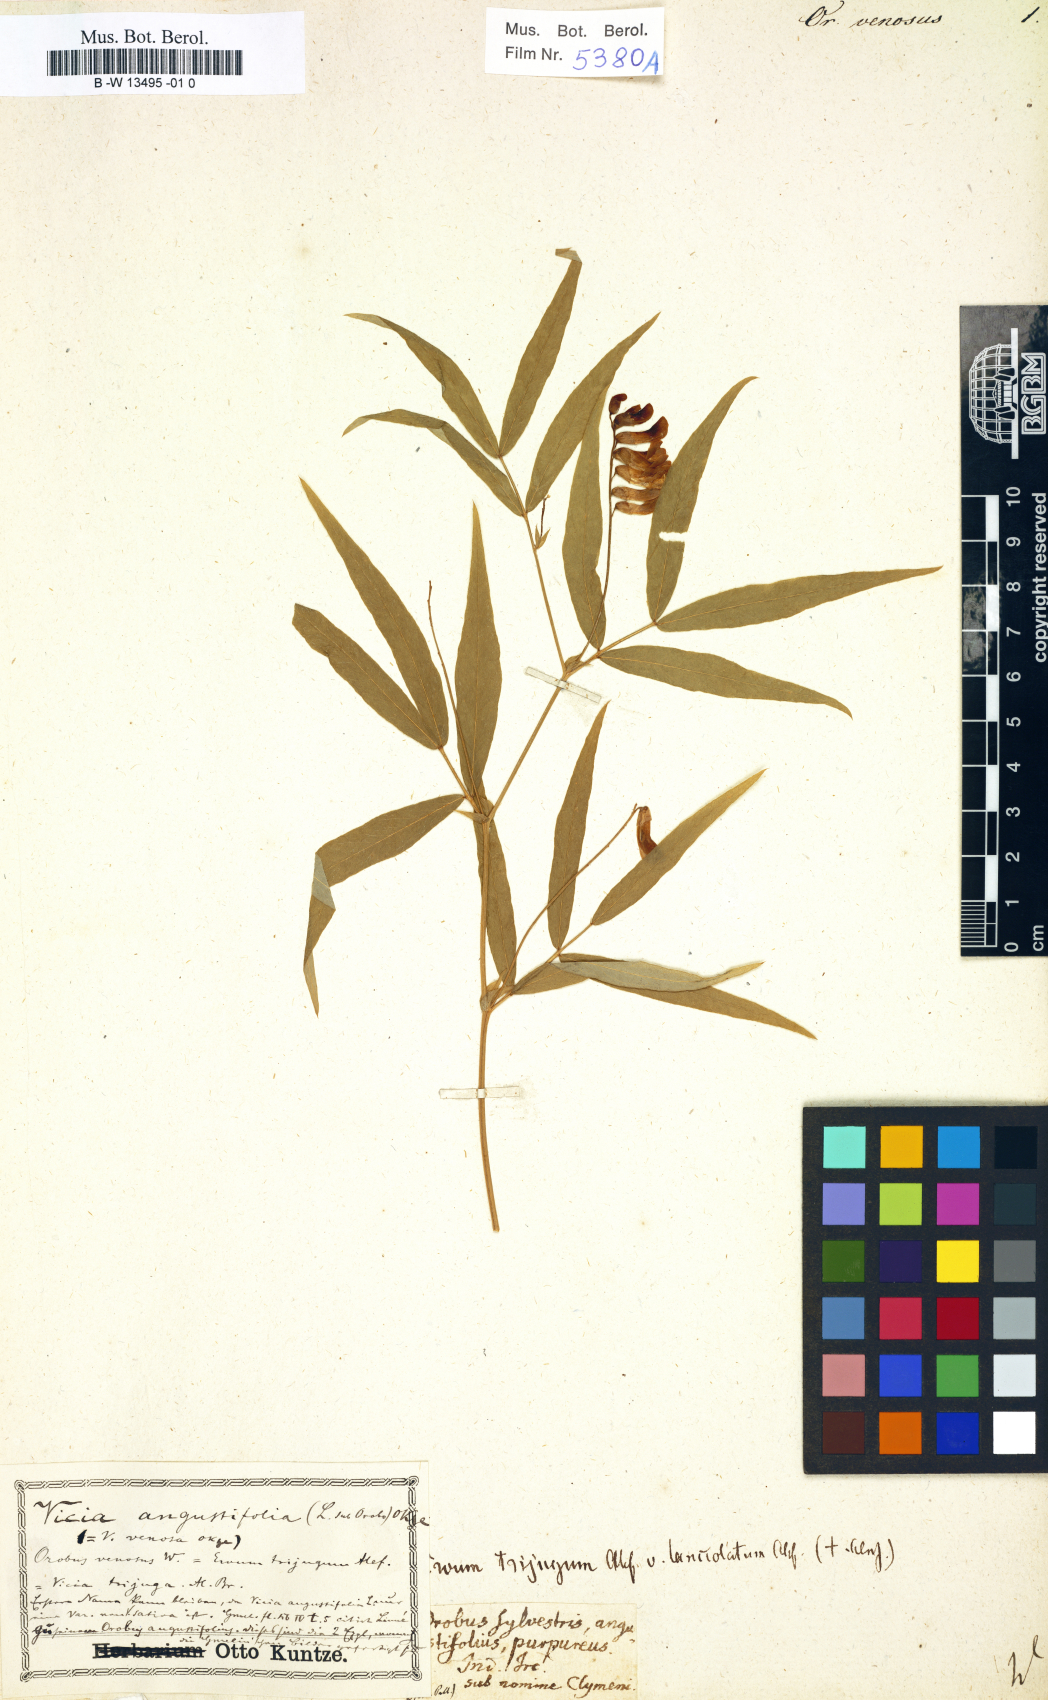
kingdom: Plantae
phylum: Tracheophyta
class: Magnoliopsida
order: Fabales
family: Fabaceae
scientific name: Fabaceae
